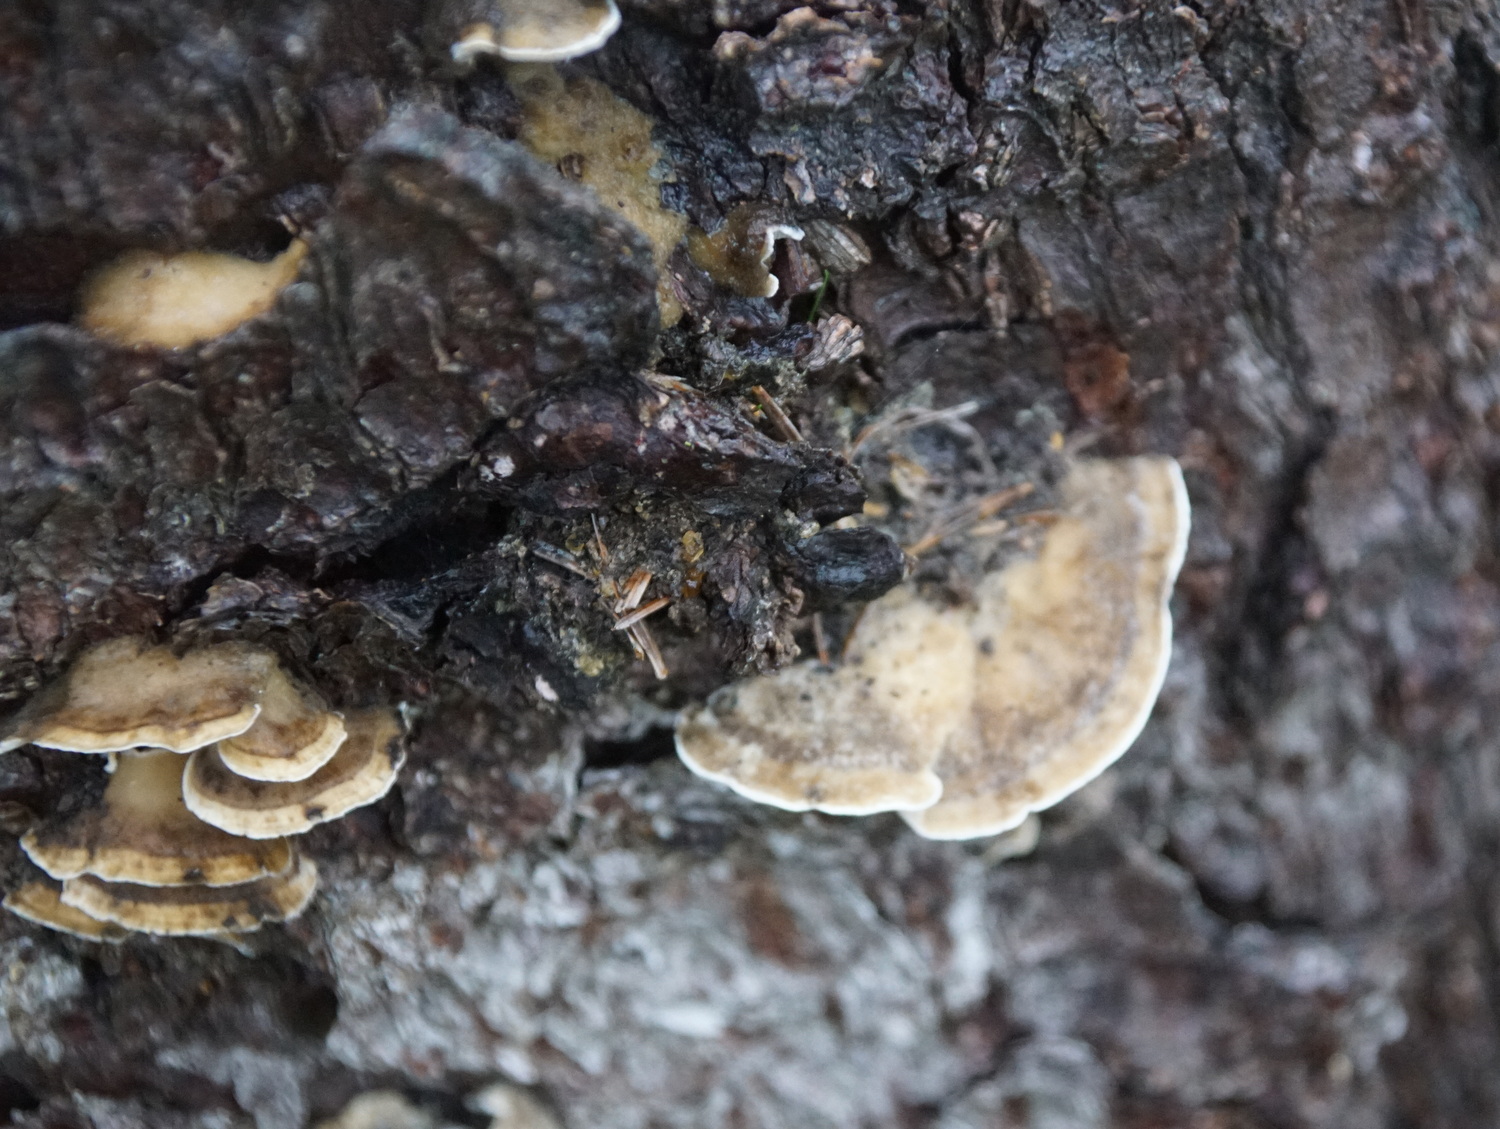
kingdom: Fungi
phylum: Basidiomycota
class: Agaricomycetes
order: Polyporales
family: Phanerochaetaceae
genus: Bjerkandera
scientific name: Bjerkandera adusta
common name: sveden sodporesvamp
